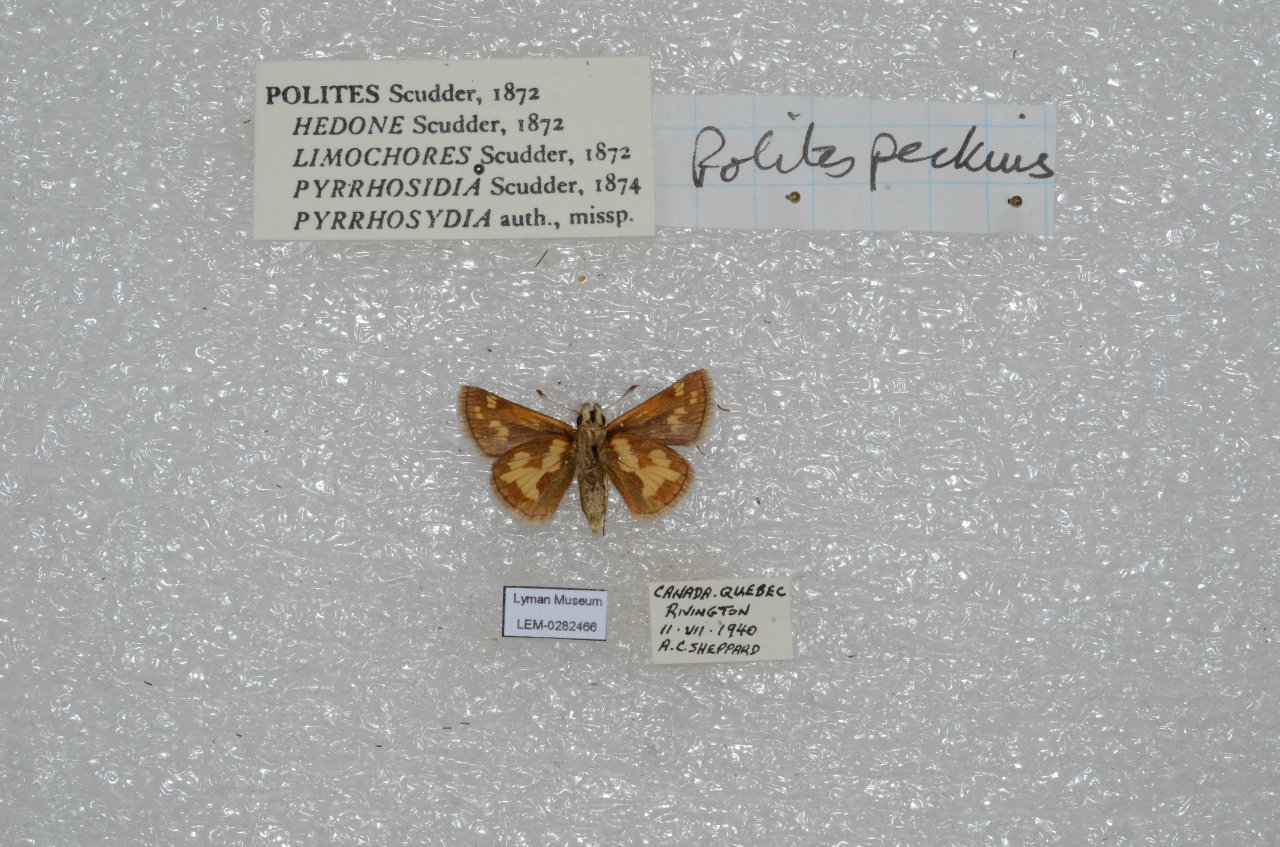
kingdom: Animalia
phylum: Arthropoda
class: Insecta
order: Lepidoptera
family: Hesperiidae
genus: Polites
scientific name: Polites coras
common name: Peck's Skipper
